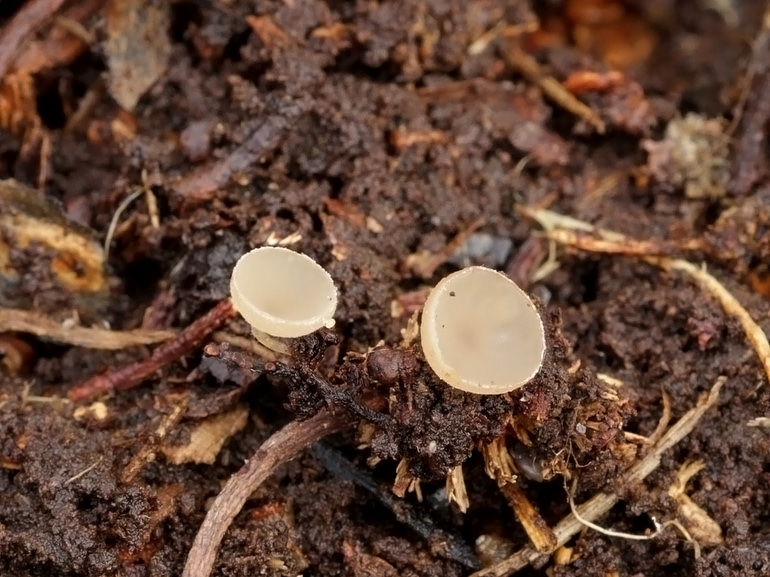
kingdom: Fungi
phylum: Ascomycota
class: Leotiomycetes
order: Helotiales
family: Sclerotiniaceae
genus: Ciboria
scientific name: Ciboria amentacea
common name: ellerakle-knoldskive
